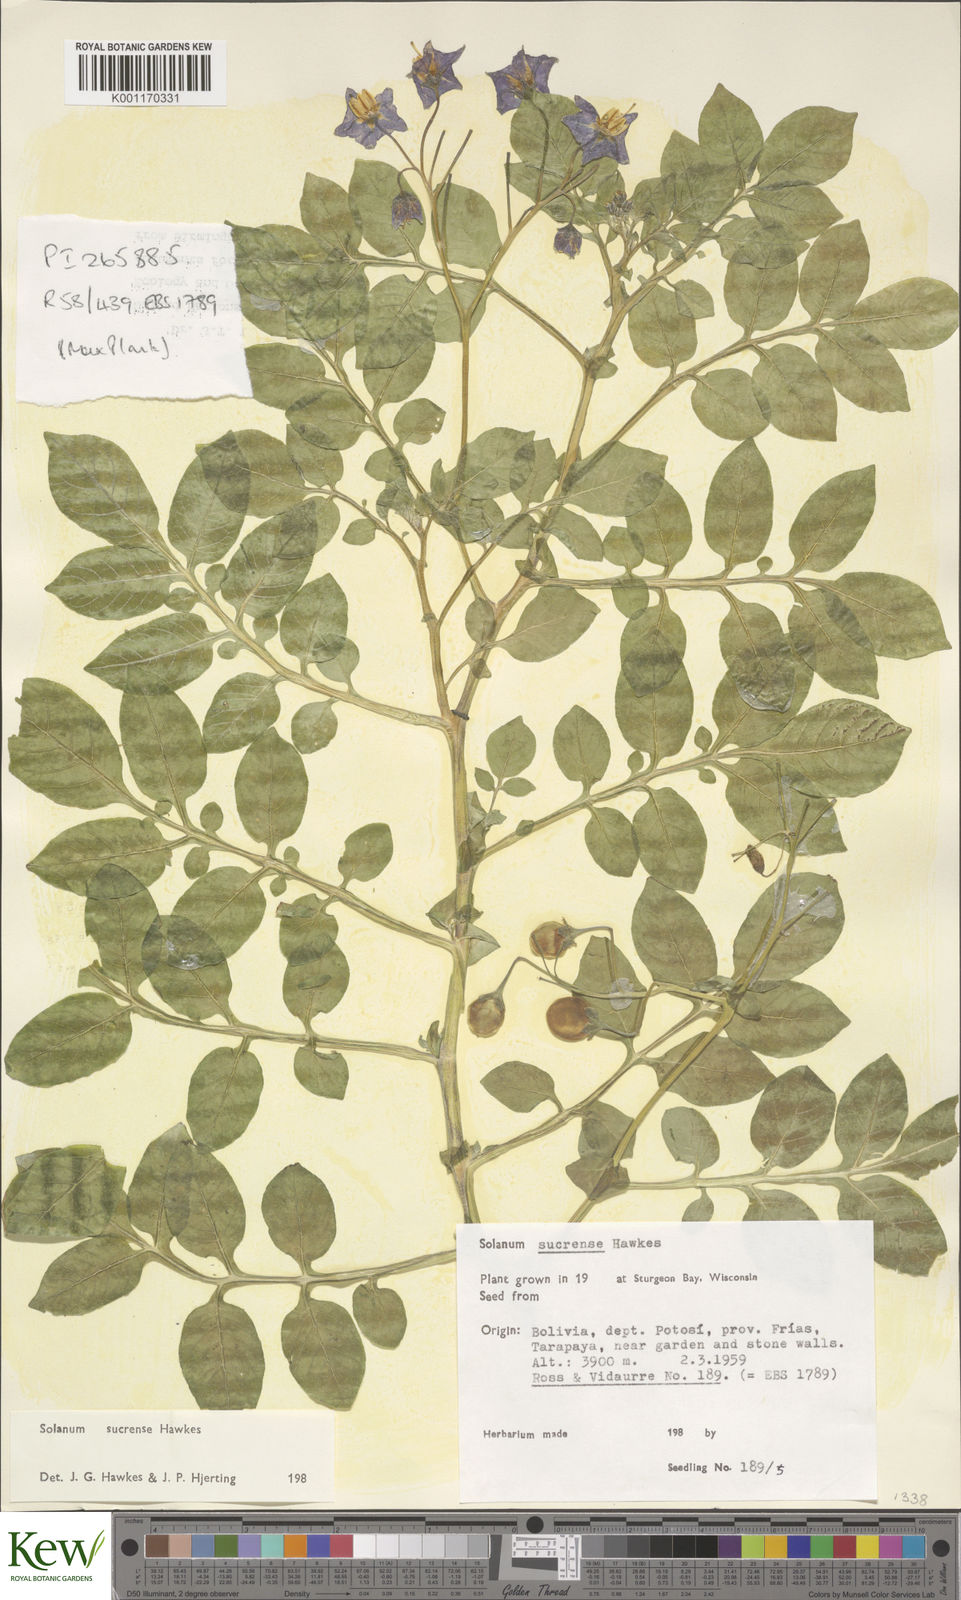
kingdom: Plantae
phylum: Tracheophyta
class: Magnoliopsida
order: Solanales
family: Solanaceae
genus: Solanum
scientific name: Solanum brevicaule
